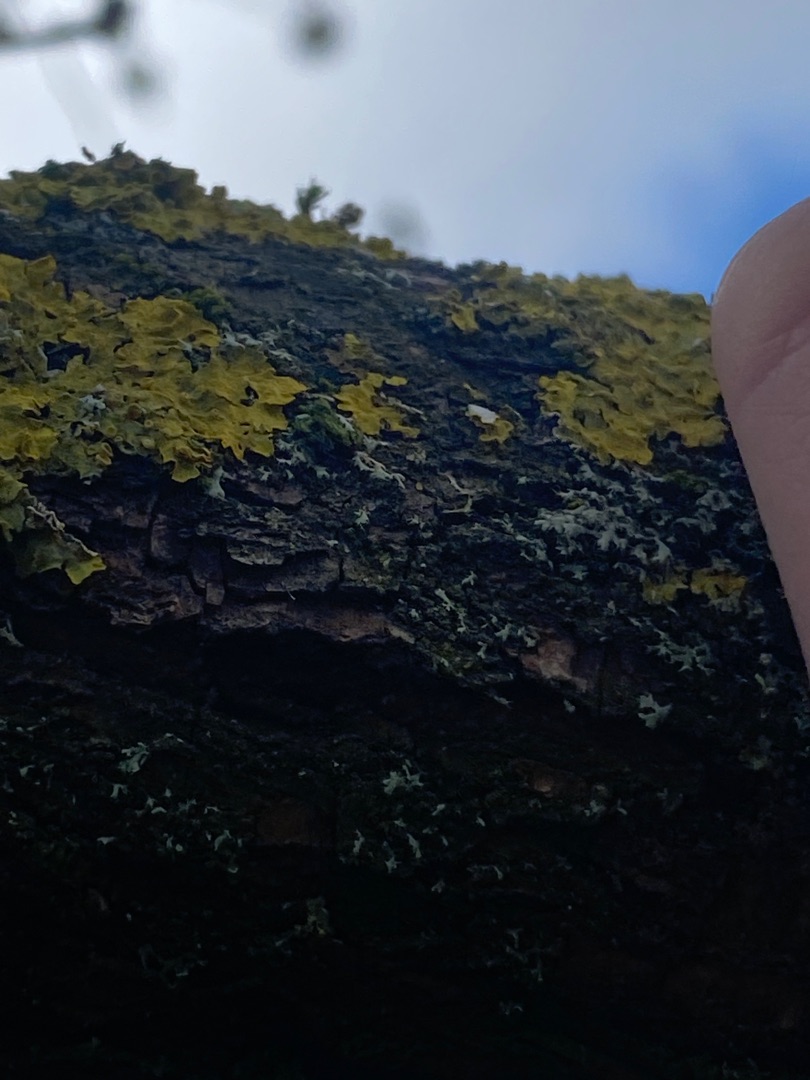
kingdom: Fungi
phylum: Ascomycota
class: Lecanoromycetes
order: Teloschistales
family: Teloschistaceae
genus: Xanthoria
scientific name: Xanthoria parietina
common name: Almindelig væggelav
